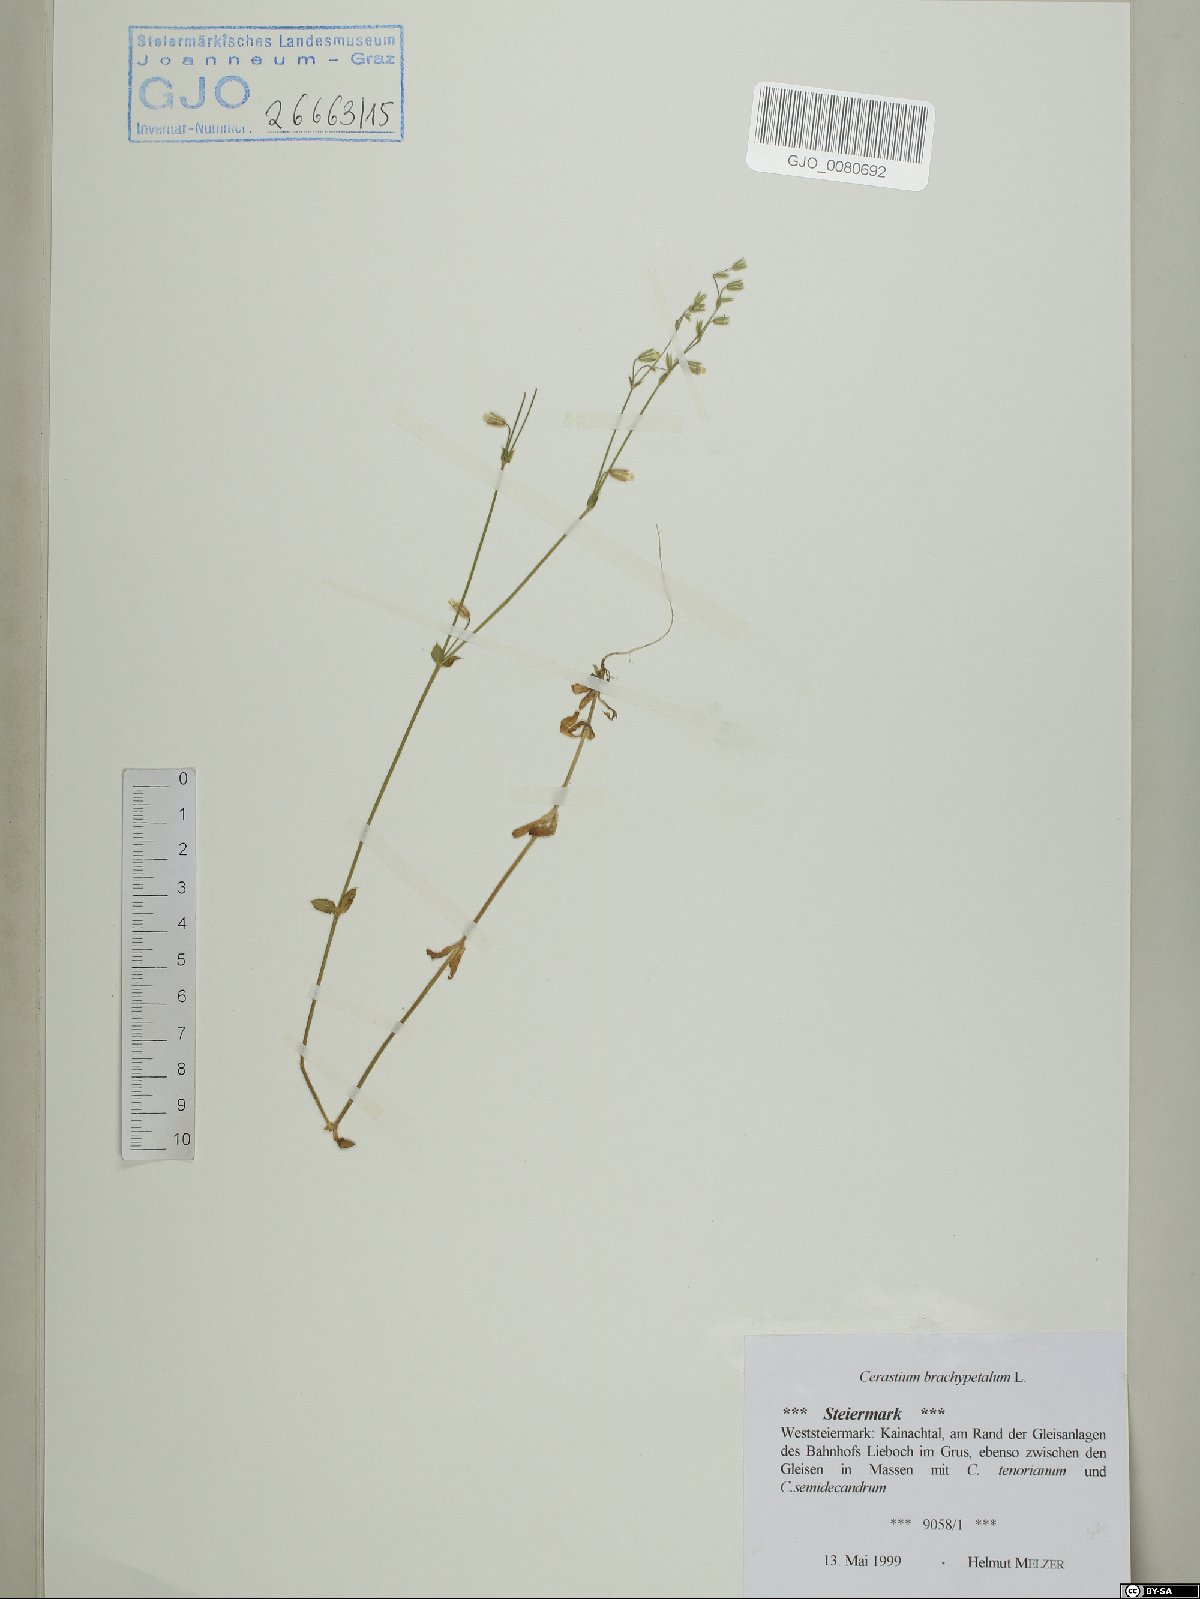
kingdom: Plantae
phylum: Tracheophyta
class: Magnoliopsida
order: Caryophyllales
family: Caryophyllaceae
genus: Cerastium
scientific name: Cerastium brachypetalum
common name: Grey mouse-ear
